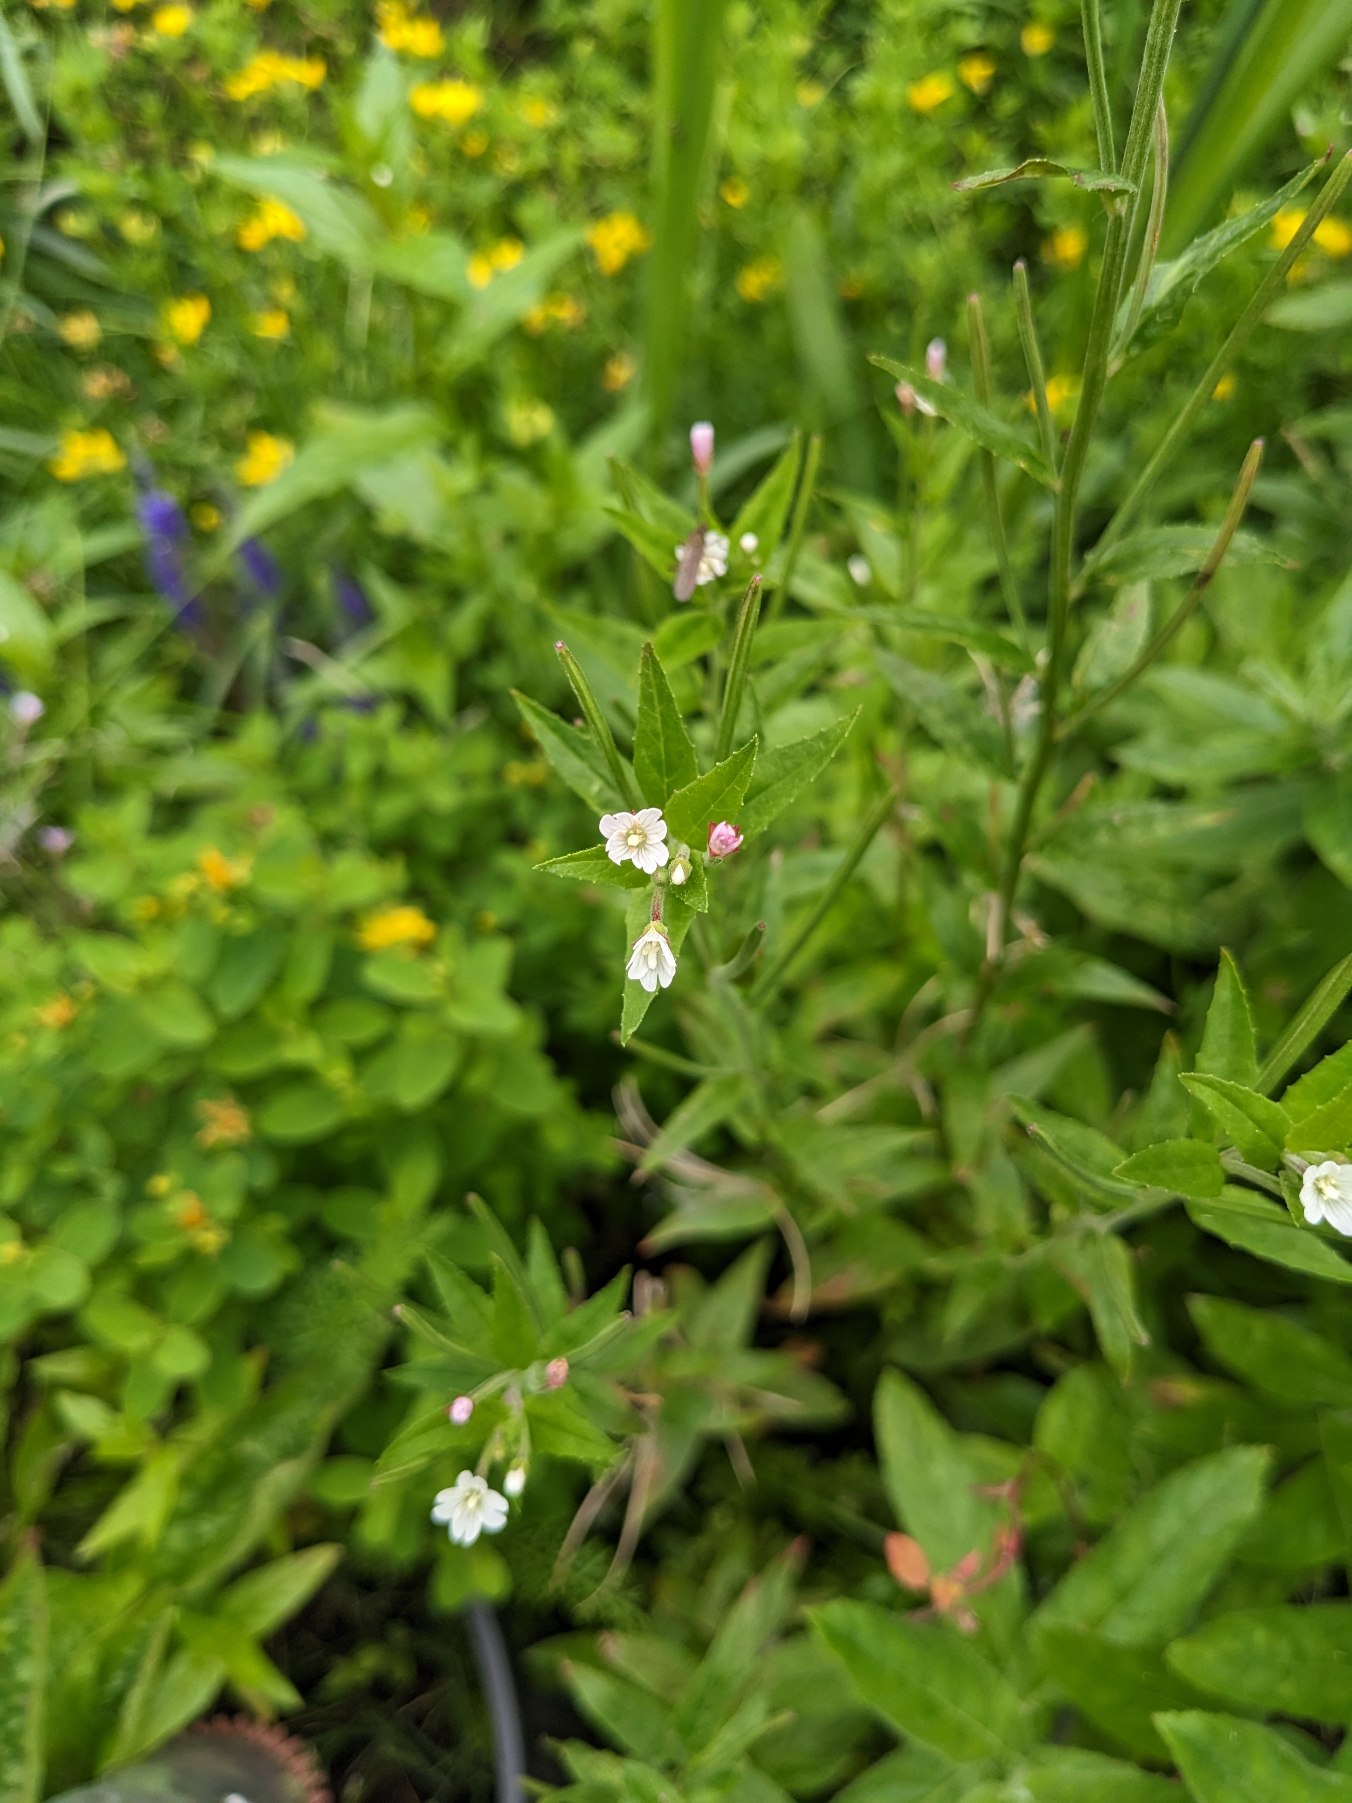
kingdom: Plantae
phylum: Tracheophyta
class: Magnoliopsida
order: Myrtales
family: Onagraceae
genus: Epilobium
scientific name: Epilobium ciliatum
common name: Kirtlet dueurt
